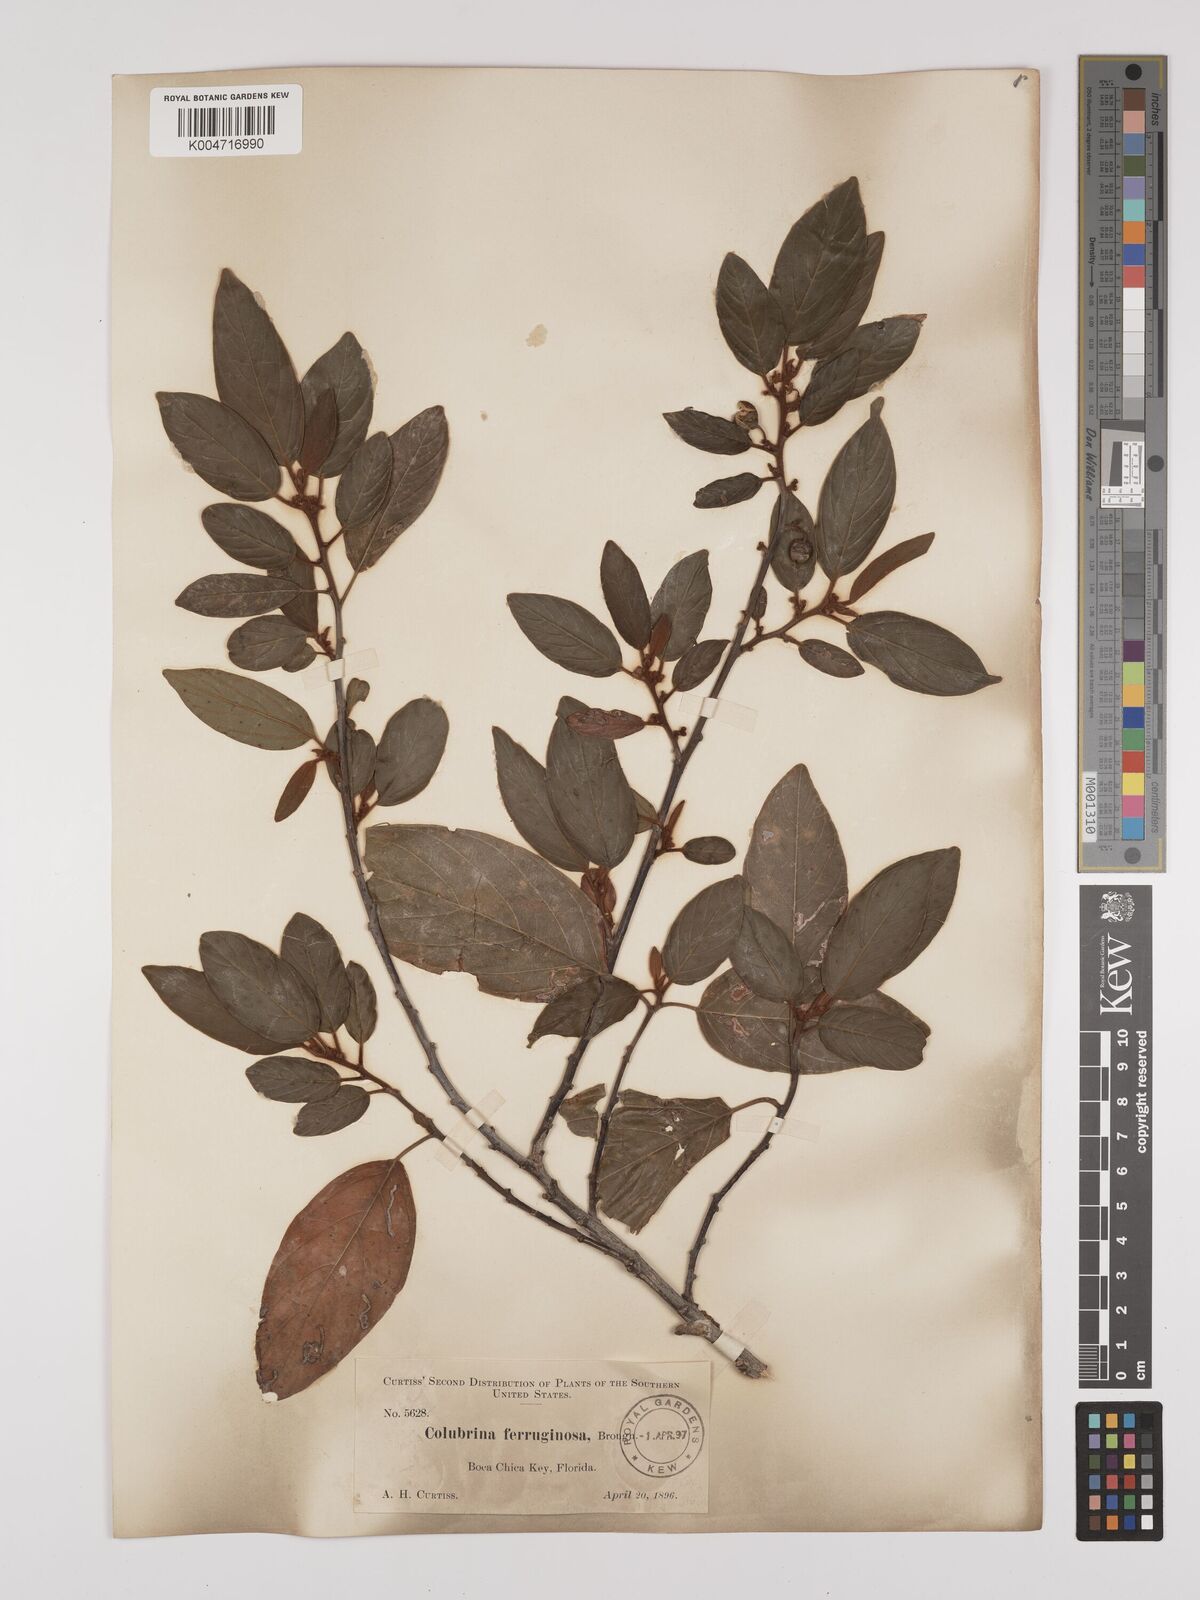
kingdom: Plantae
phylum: Tracheophyta
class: Magnoliopsida
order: Rosales
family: Rhamnaceae
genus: Colubrina
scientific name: Colubrina arborescens
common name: Wild coffee
